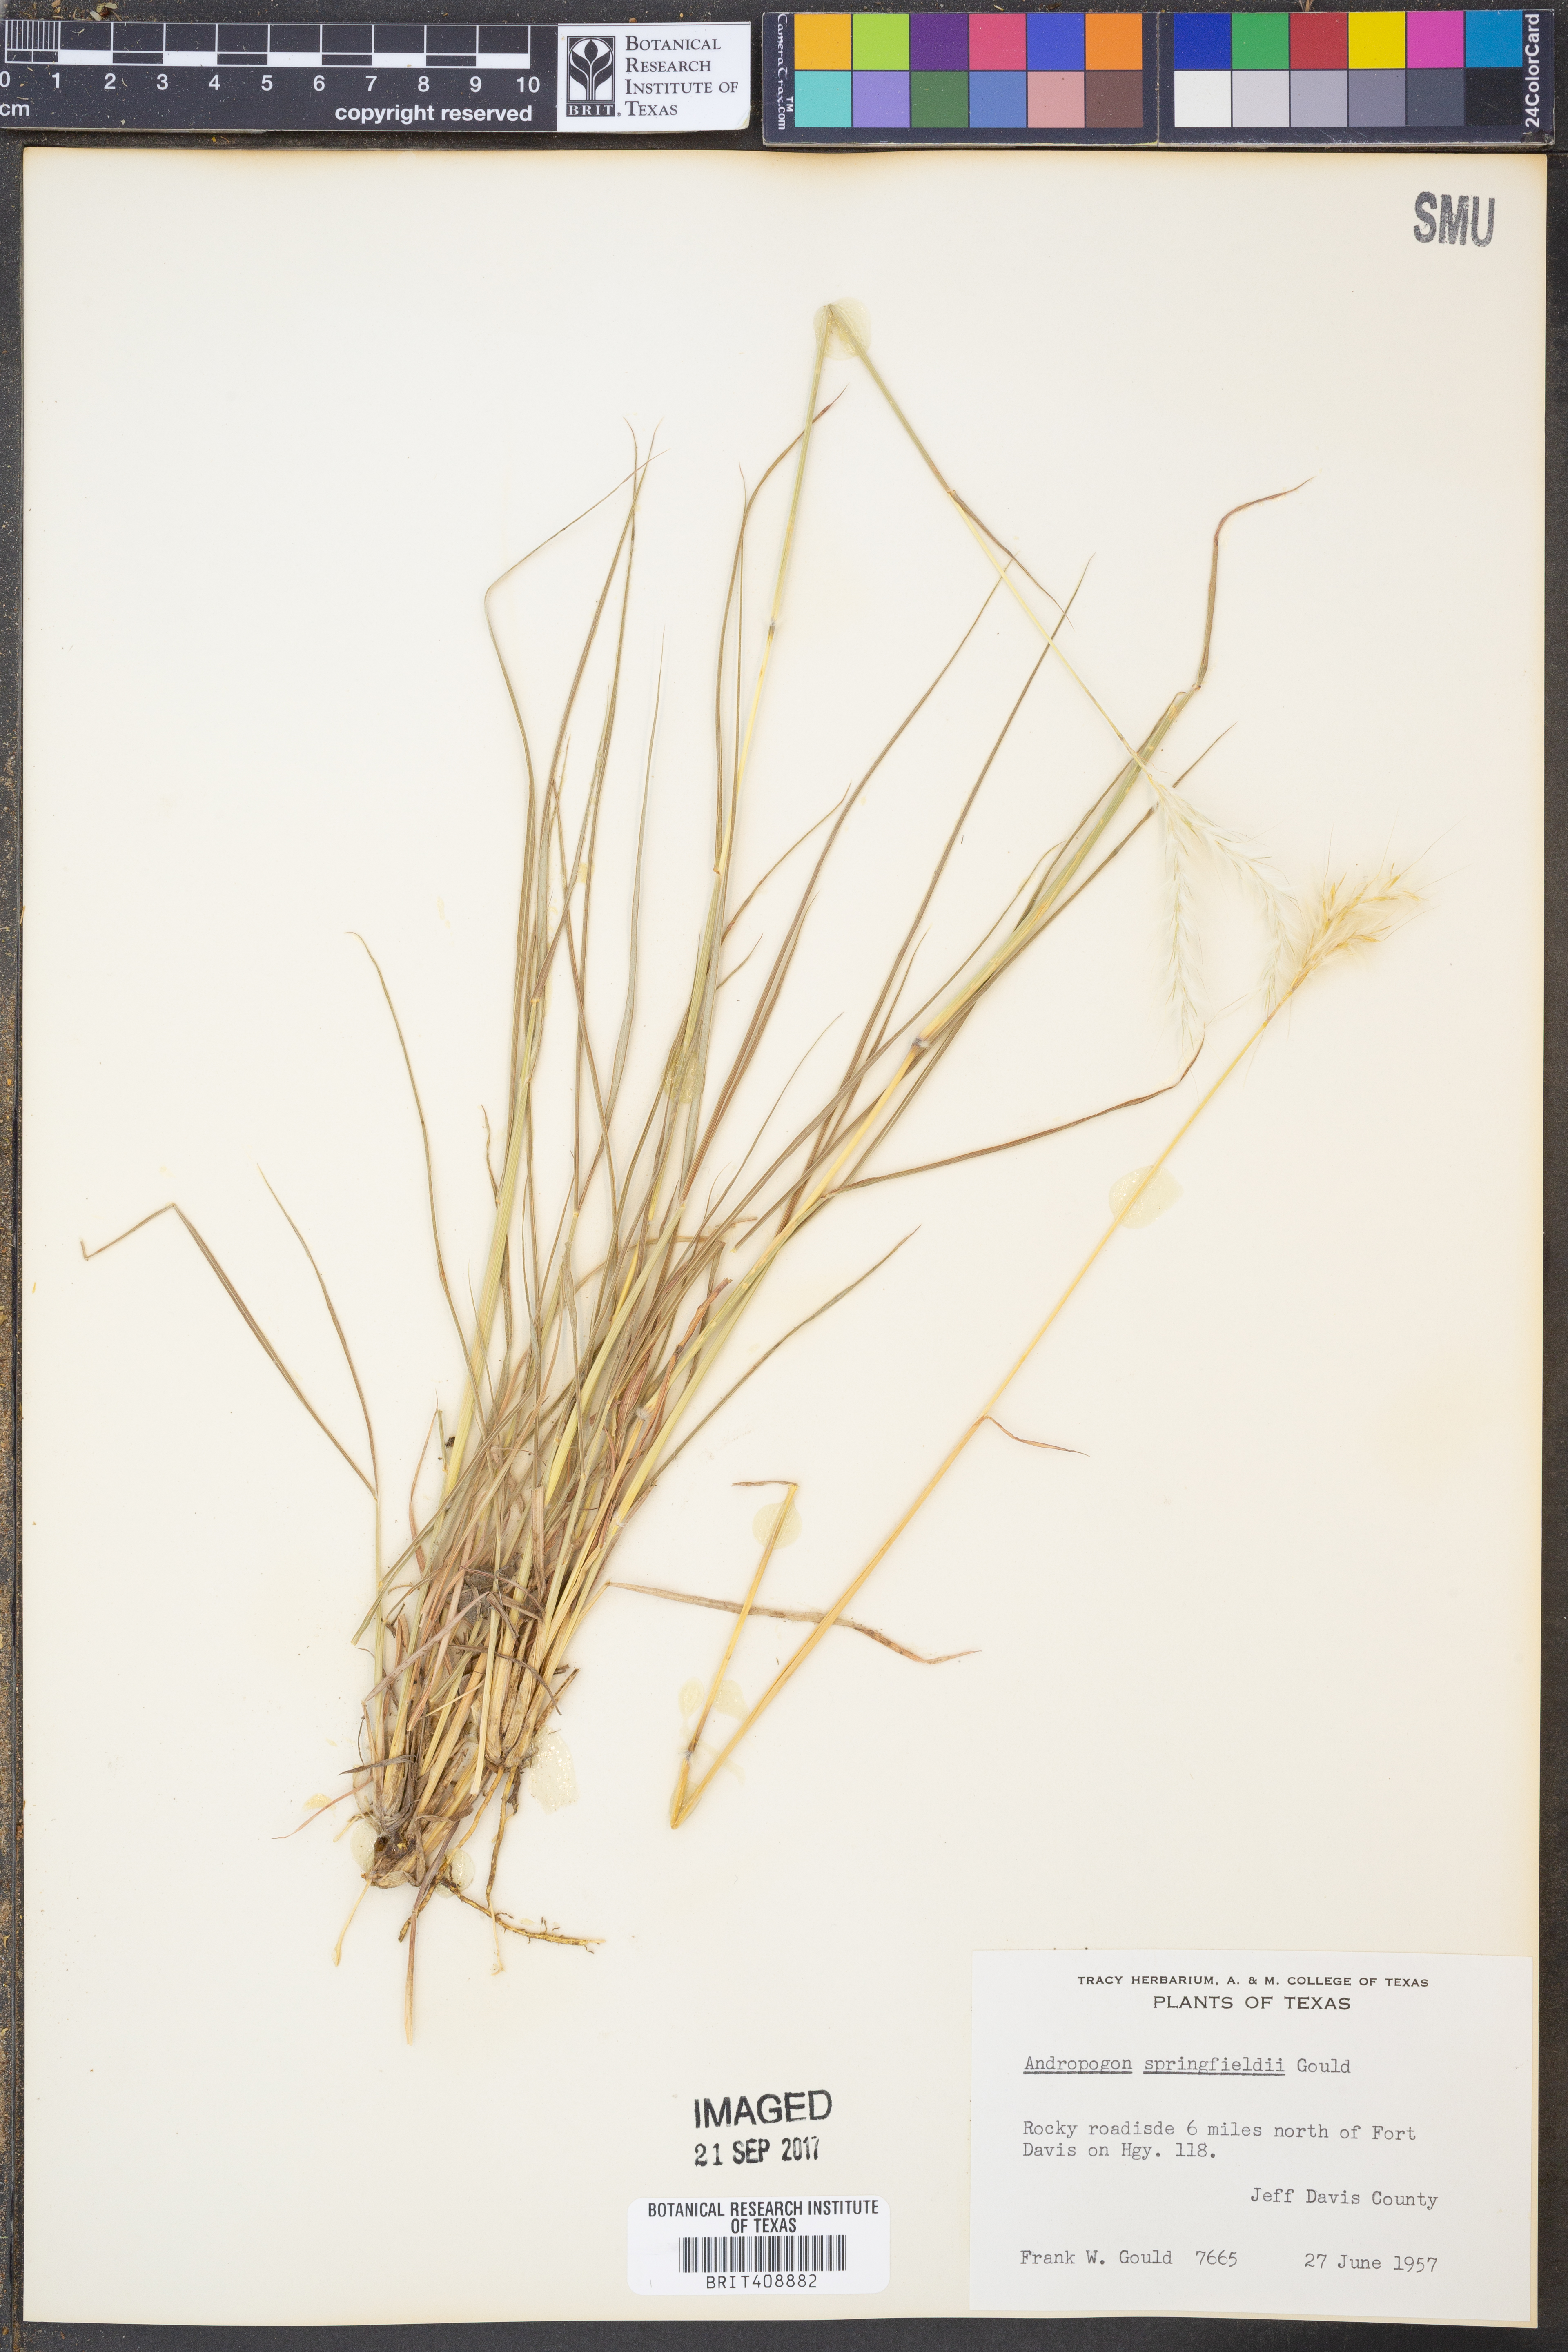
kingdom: Plantae
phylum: Tracheophyta
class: Liliopsida
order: Poales
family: Poaceae
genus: Bothriochloa
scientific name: Bothriochloa springfieldii
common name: Springfield bluestem
